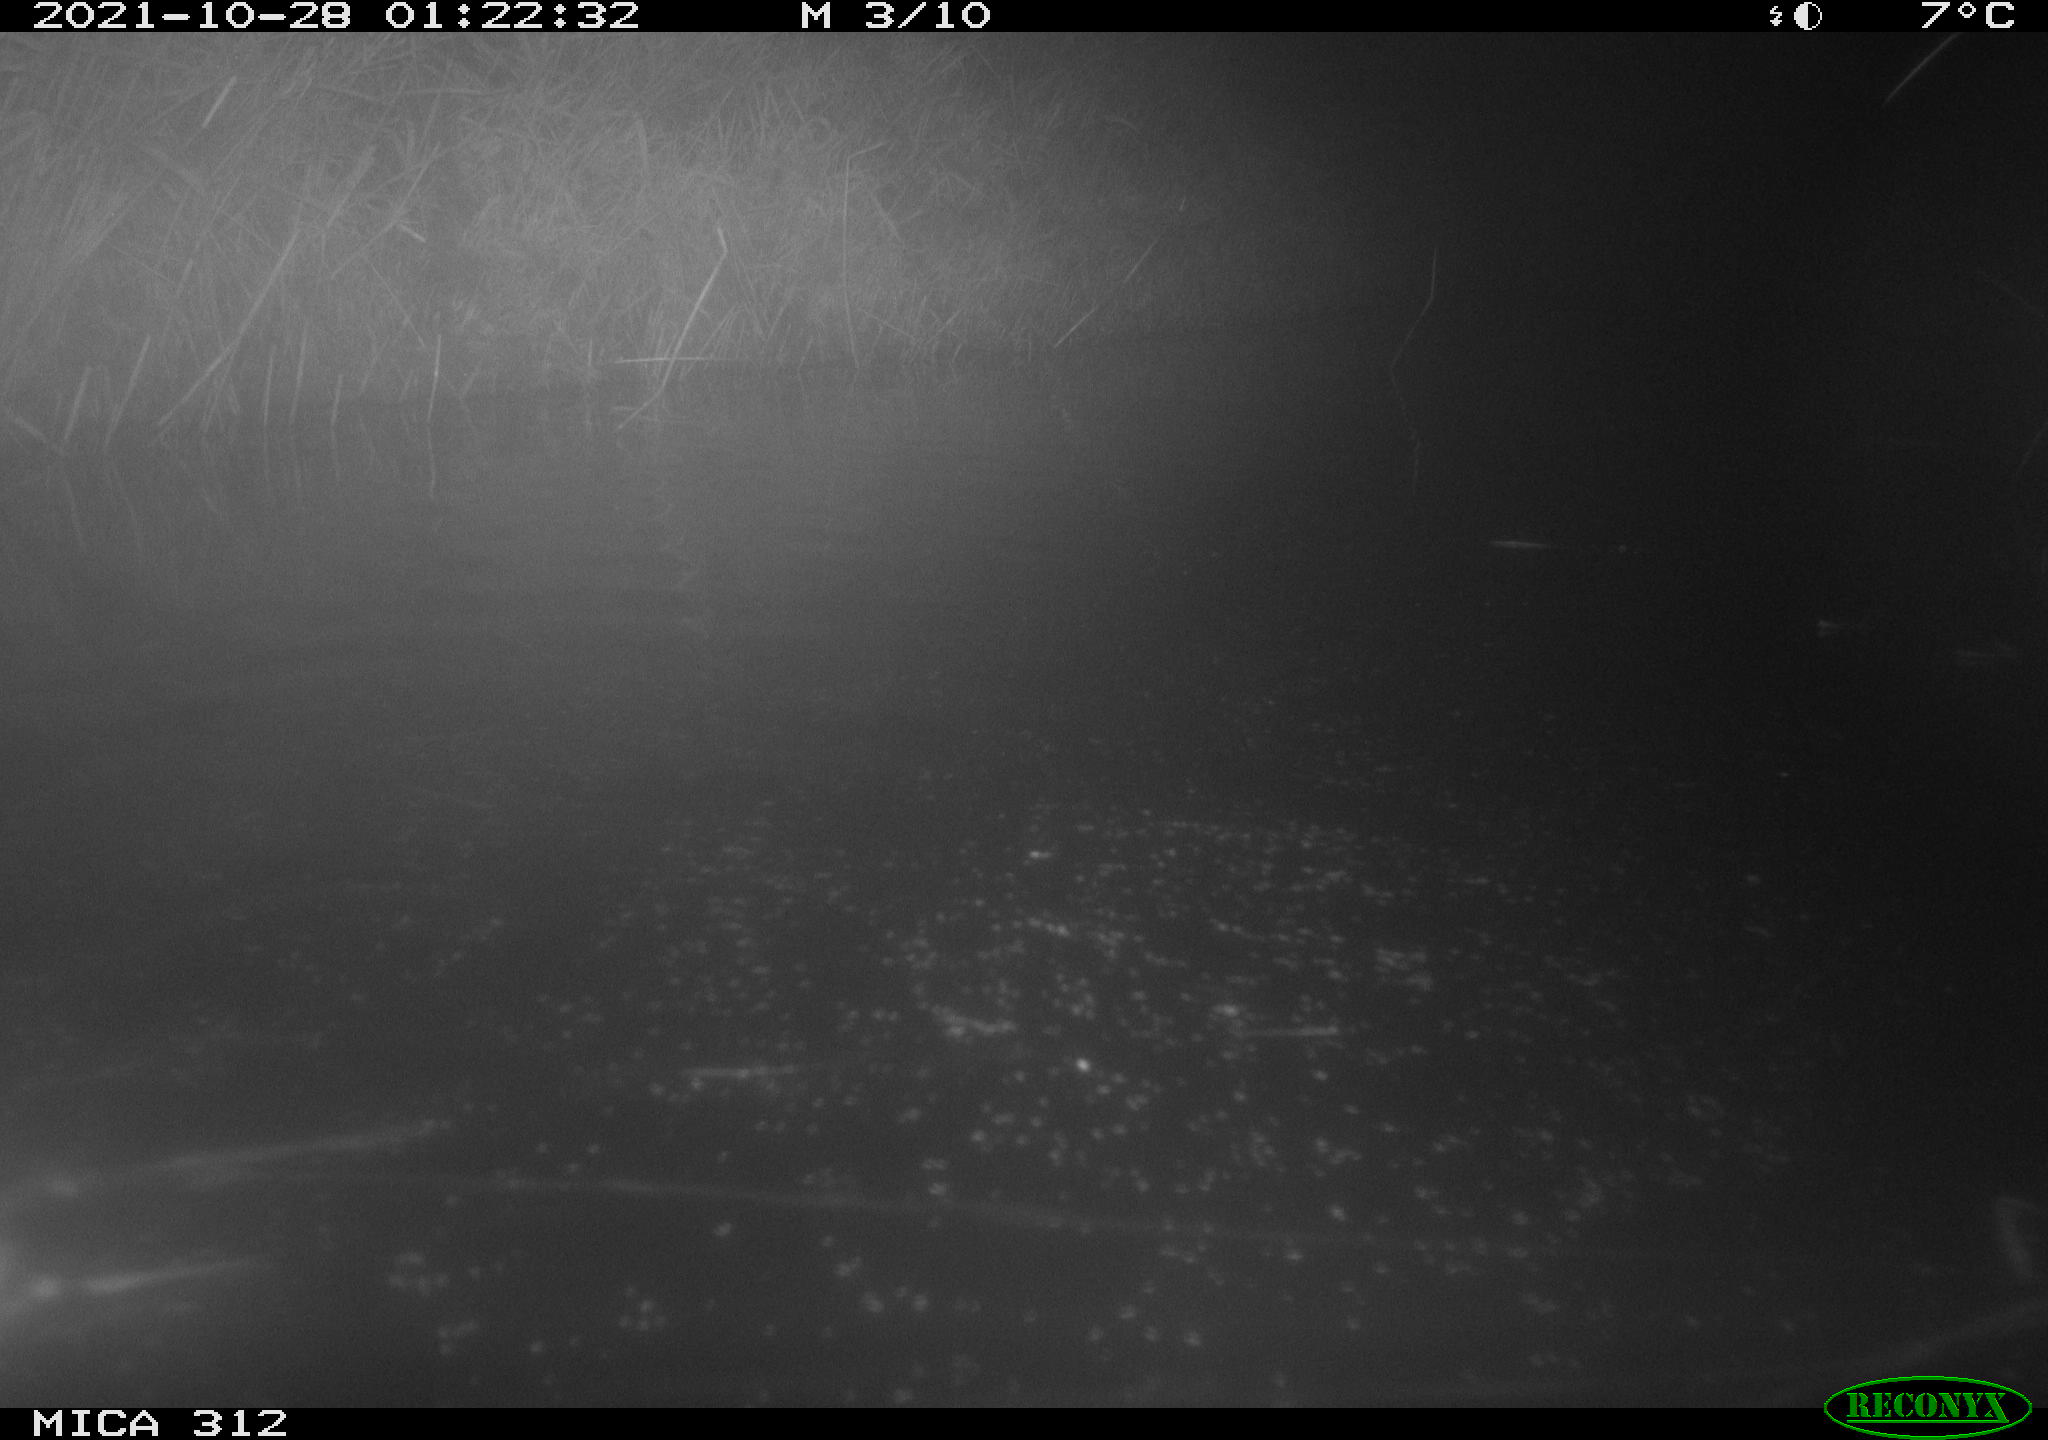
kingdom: Animalia
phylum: Chordata
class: Mammalia
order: Rodentia
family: Muridae
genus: Rattus
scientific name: Rattus norvegicus
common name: Brown rat
